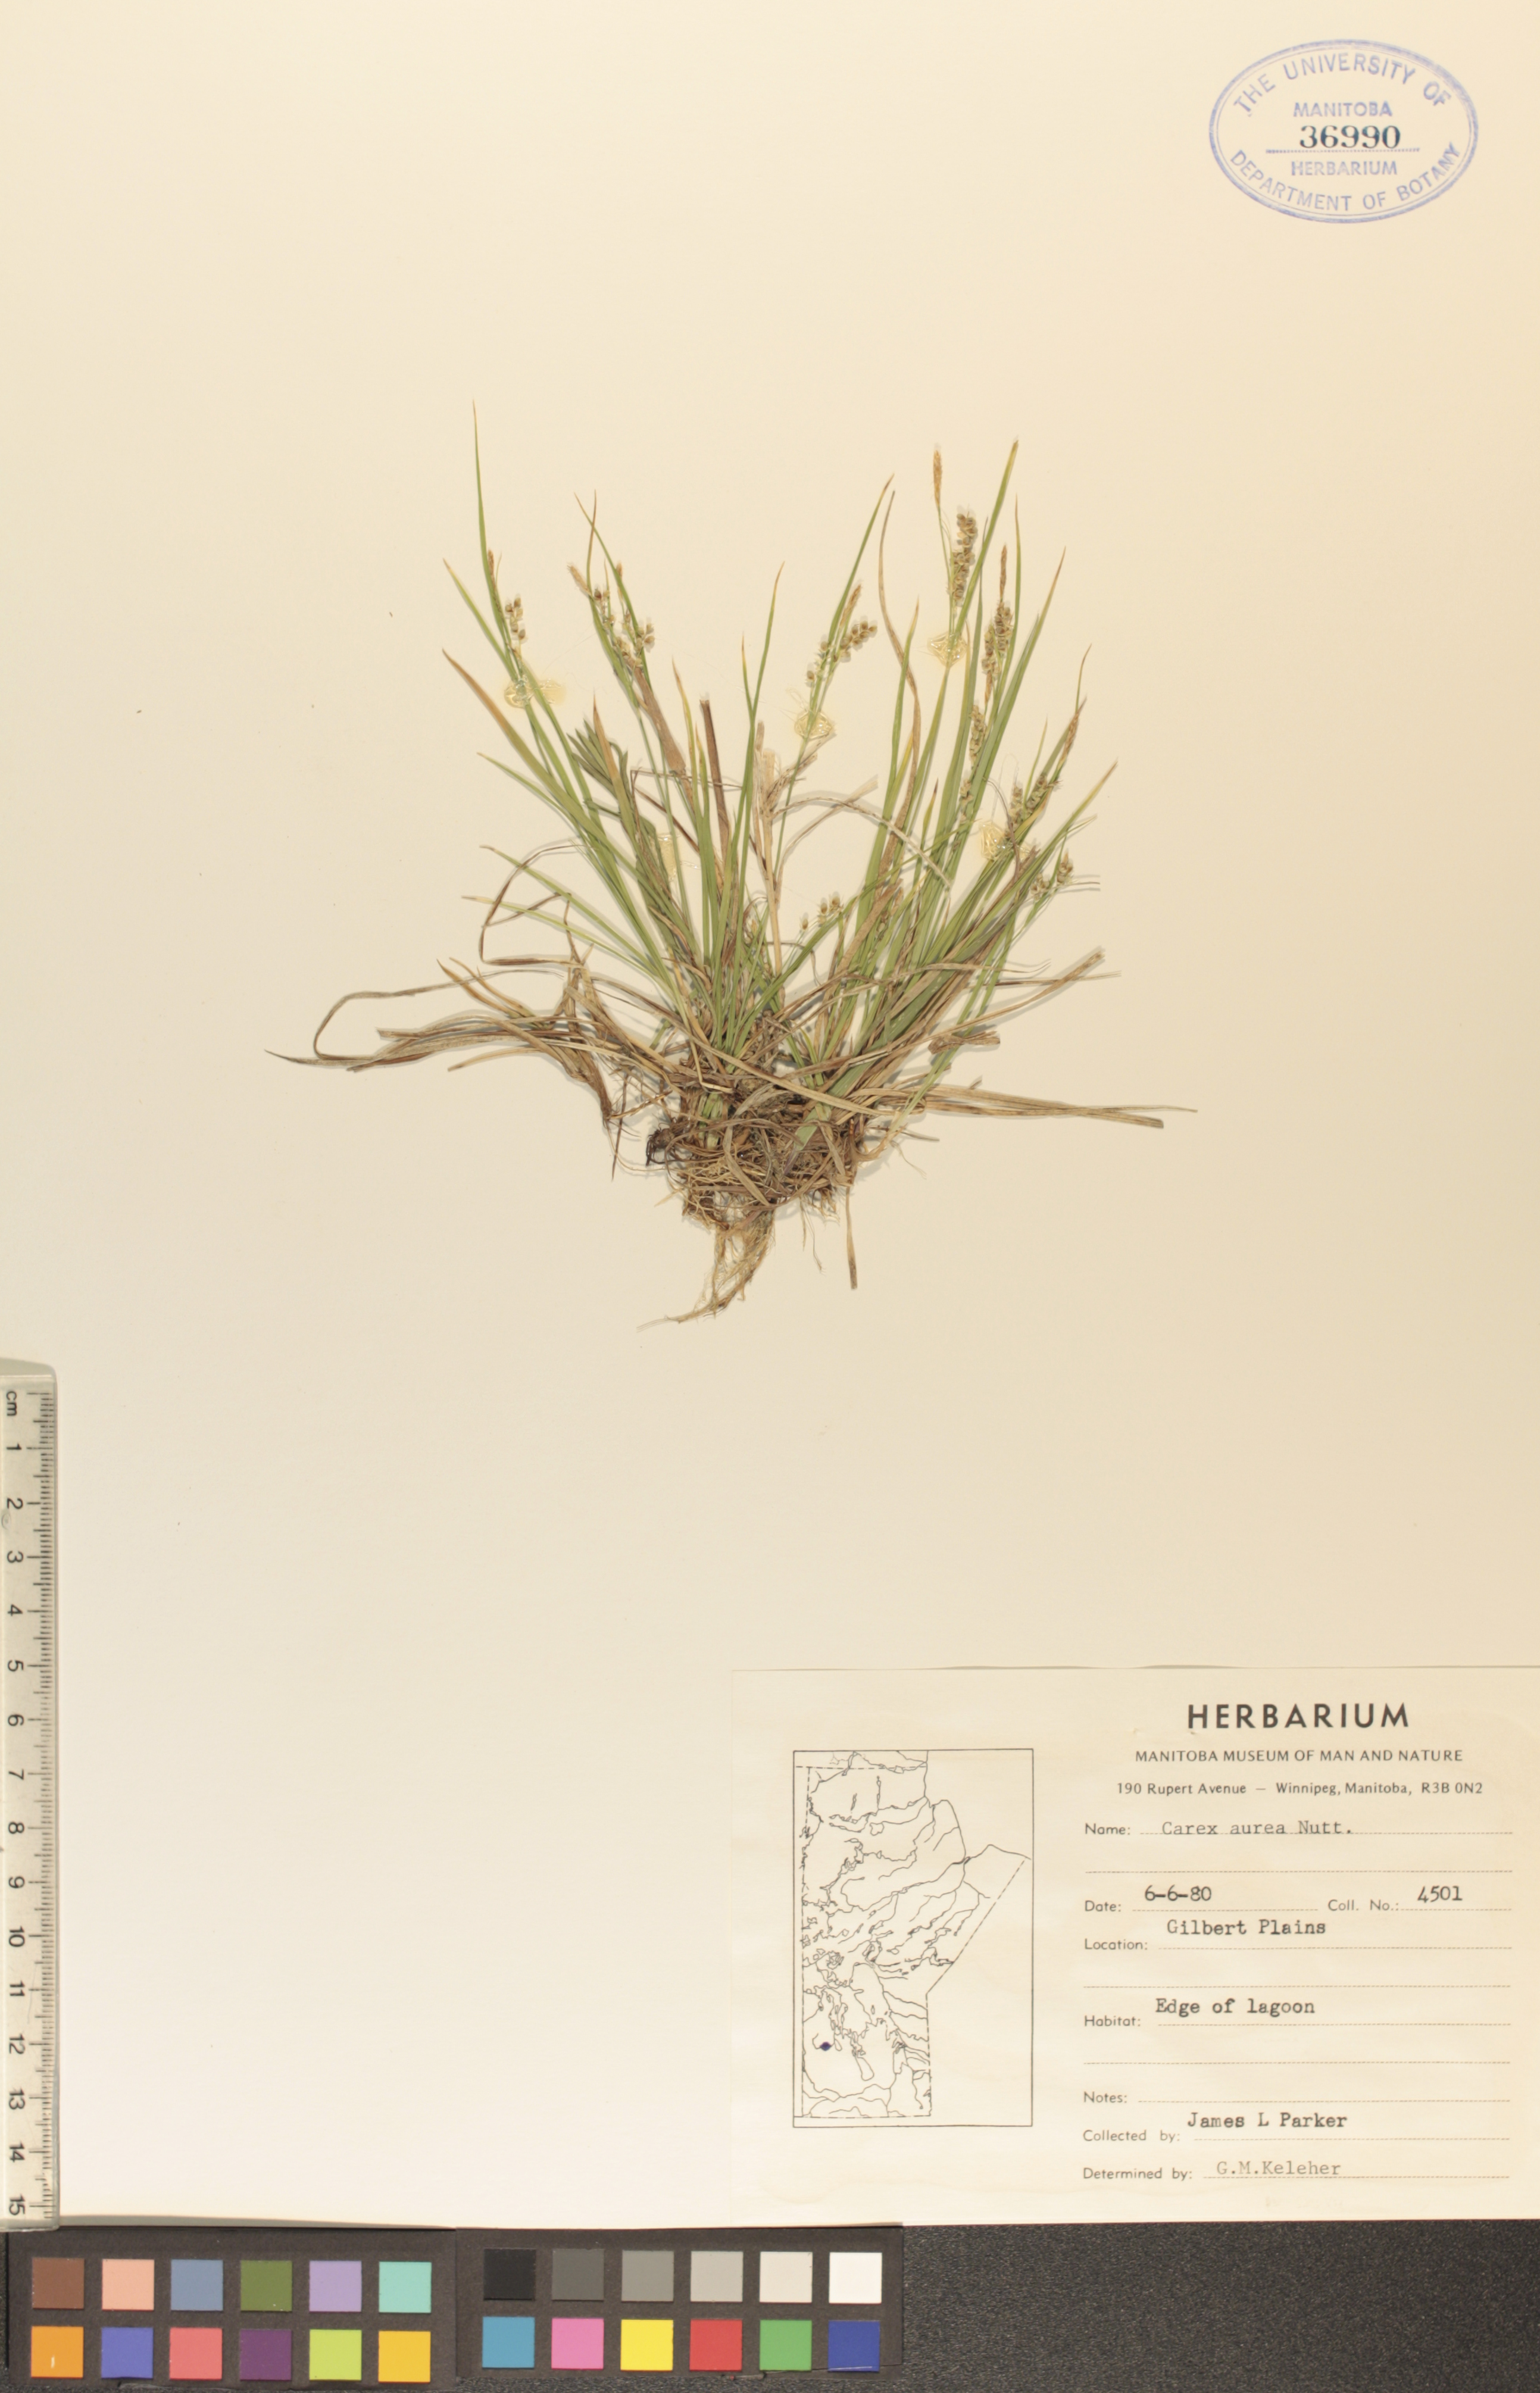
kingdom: Plantae
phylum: Tracheophyta
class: Liliopsida
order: Poales
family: Cyperaceae
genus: Carex
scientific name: Carex aurea
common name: Golden sedge
